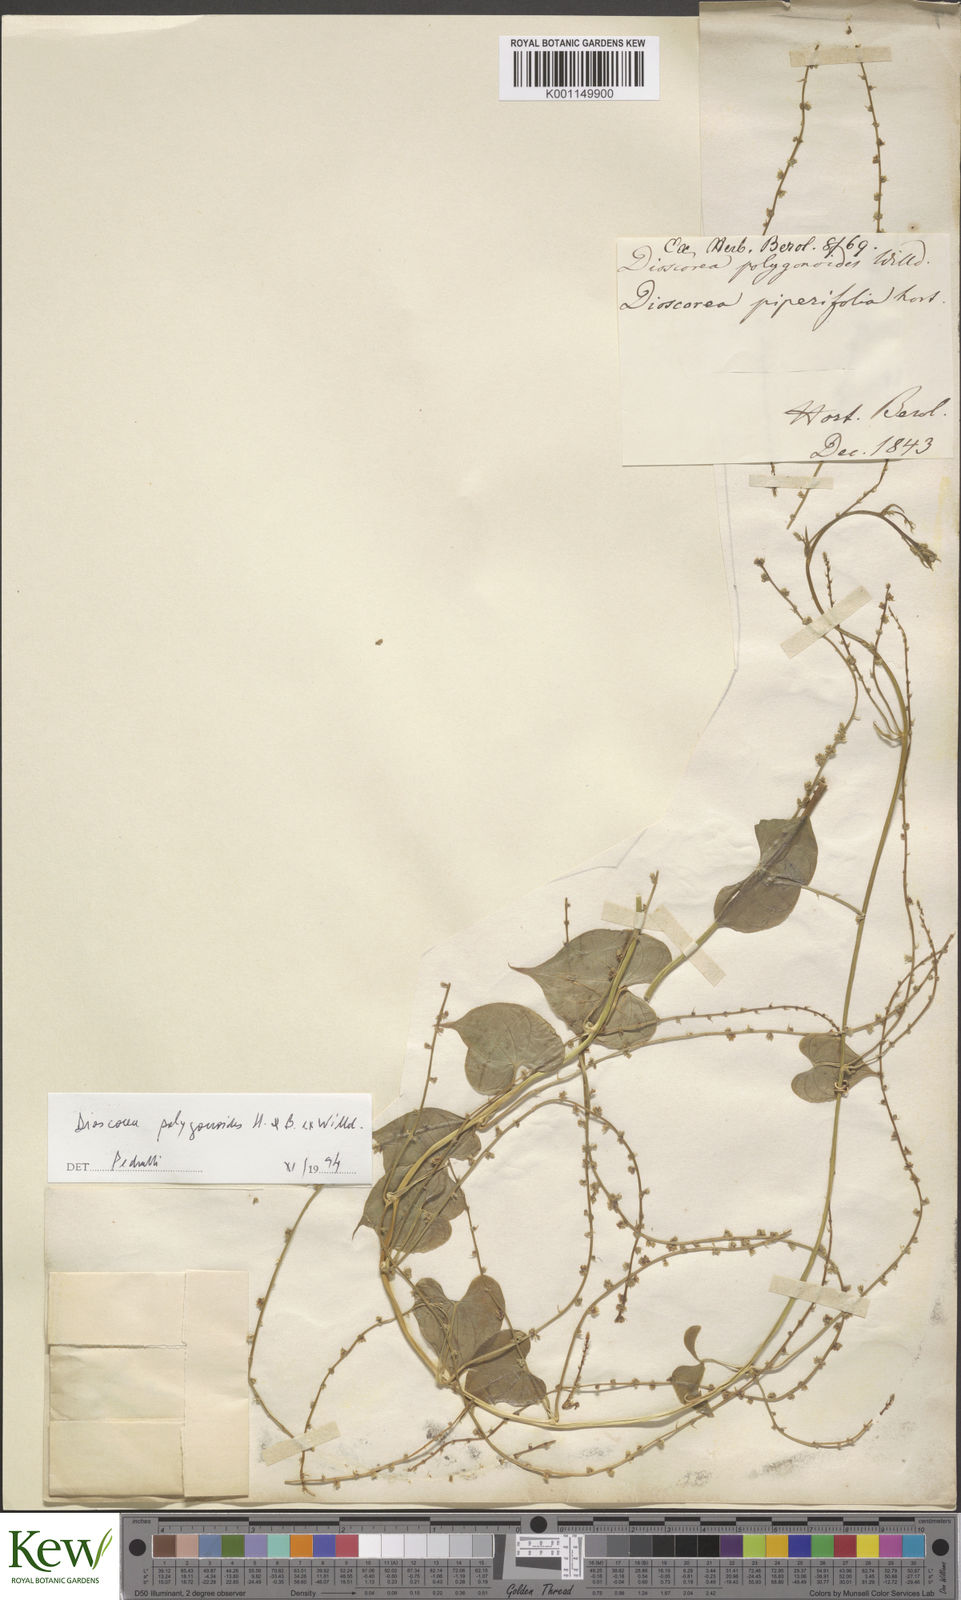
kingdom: Plantae
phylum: Tracheophyta
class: Liliopsida
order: Dioscoreales
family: Dioscoreaceae
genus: Dioscorea
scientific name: Dioscorea polygonoides
